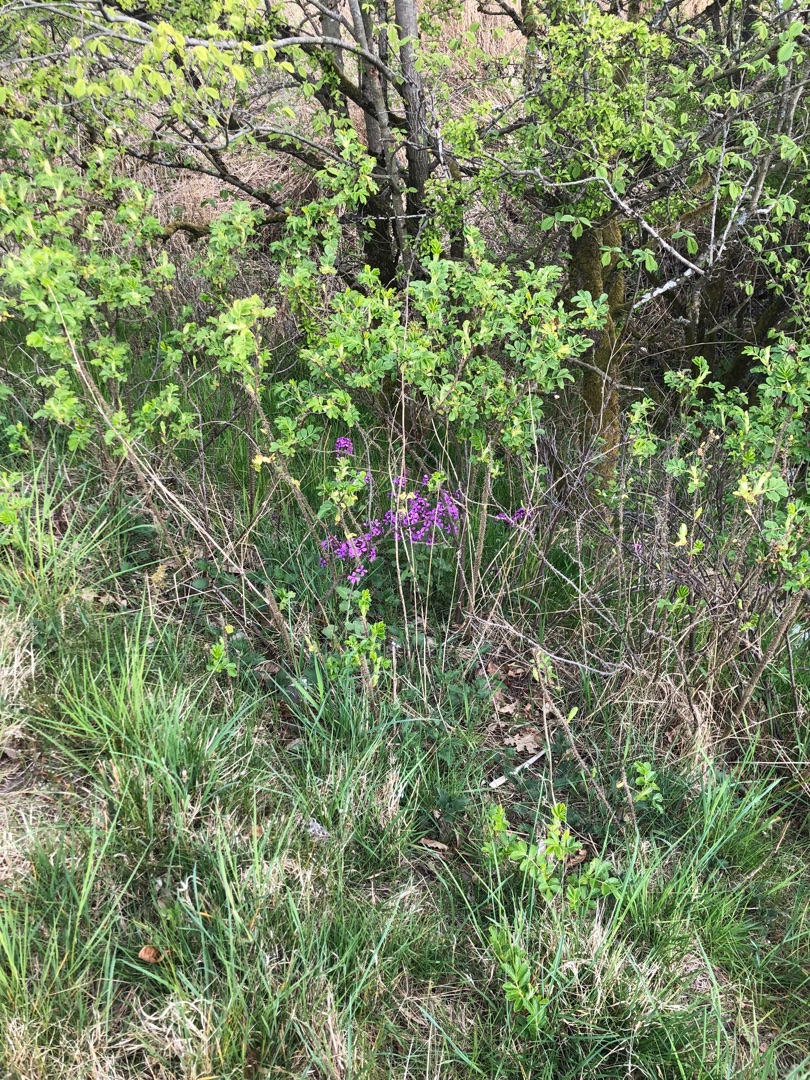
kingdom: Plantae
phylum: Tracheophyta
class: Magnoliopsida
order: Brassicales
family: Brassicaceae
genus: Lunaria
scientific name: Lunaria annua
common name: Judaspenge
